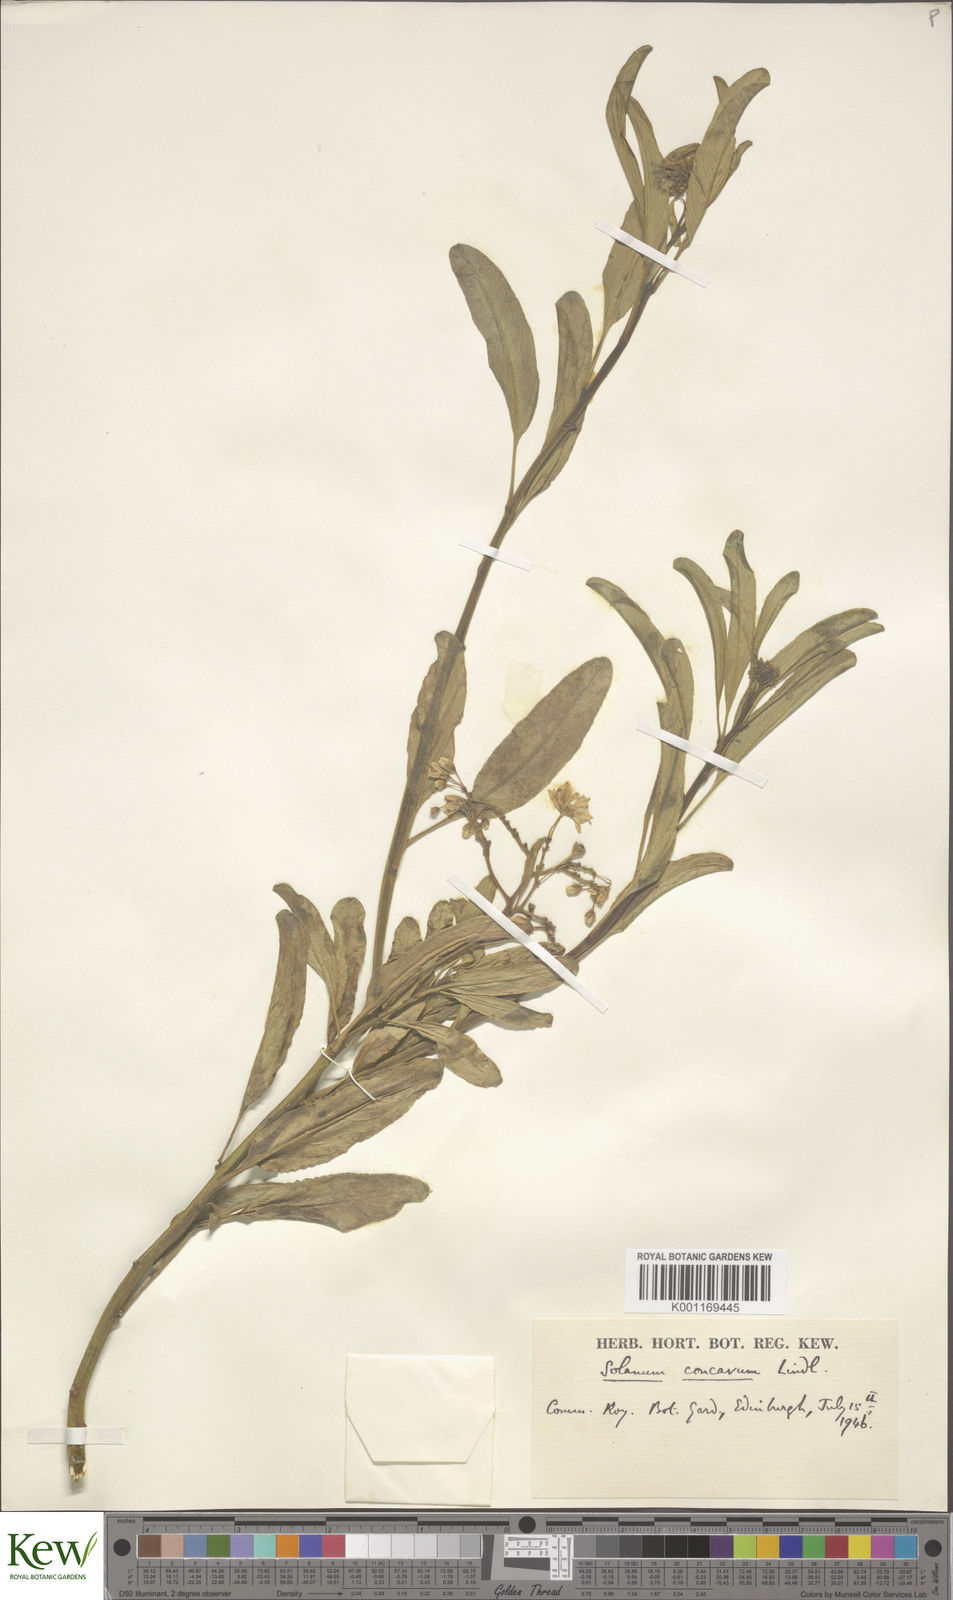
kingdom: Plantae
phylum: Tracheophyta
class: Magnoliopsida
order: Solanales
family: Solanaceae
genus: Solanum
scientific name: Solanum crispum
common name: Chilean nightshade
